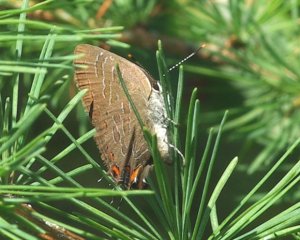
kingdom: Animalia
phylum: Arthropoda
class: Insecta
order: Lepidoptera
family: Lycaenidae
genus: Satyrium
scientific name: Satyrium liparops
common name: Striped Hairstreak
